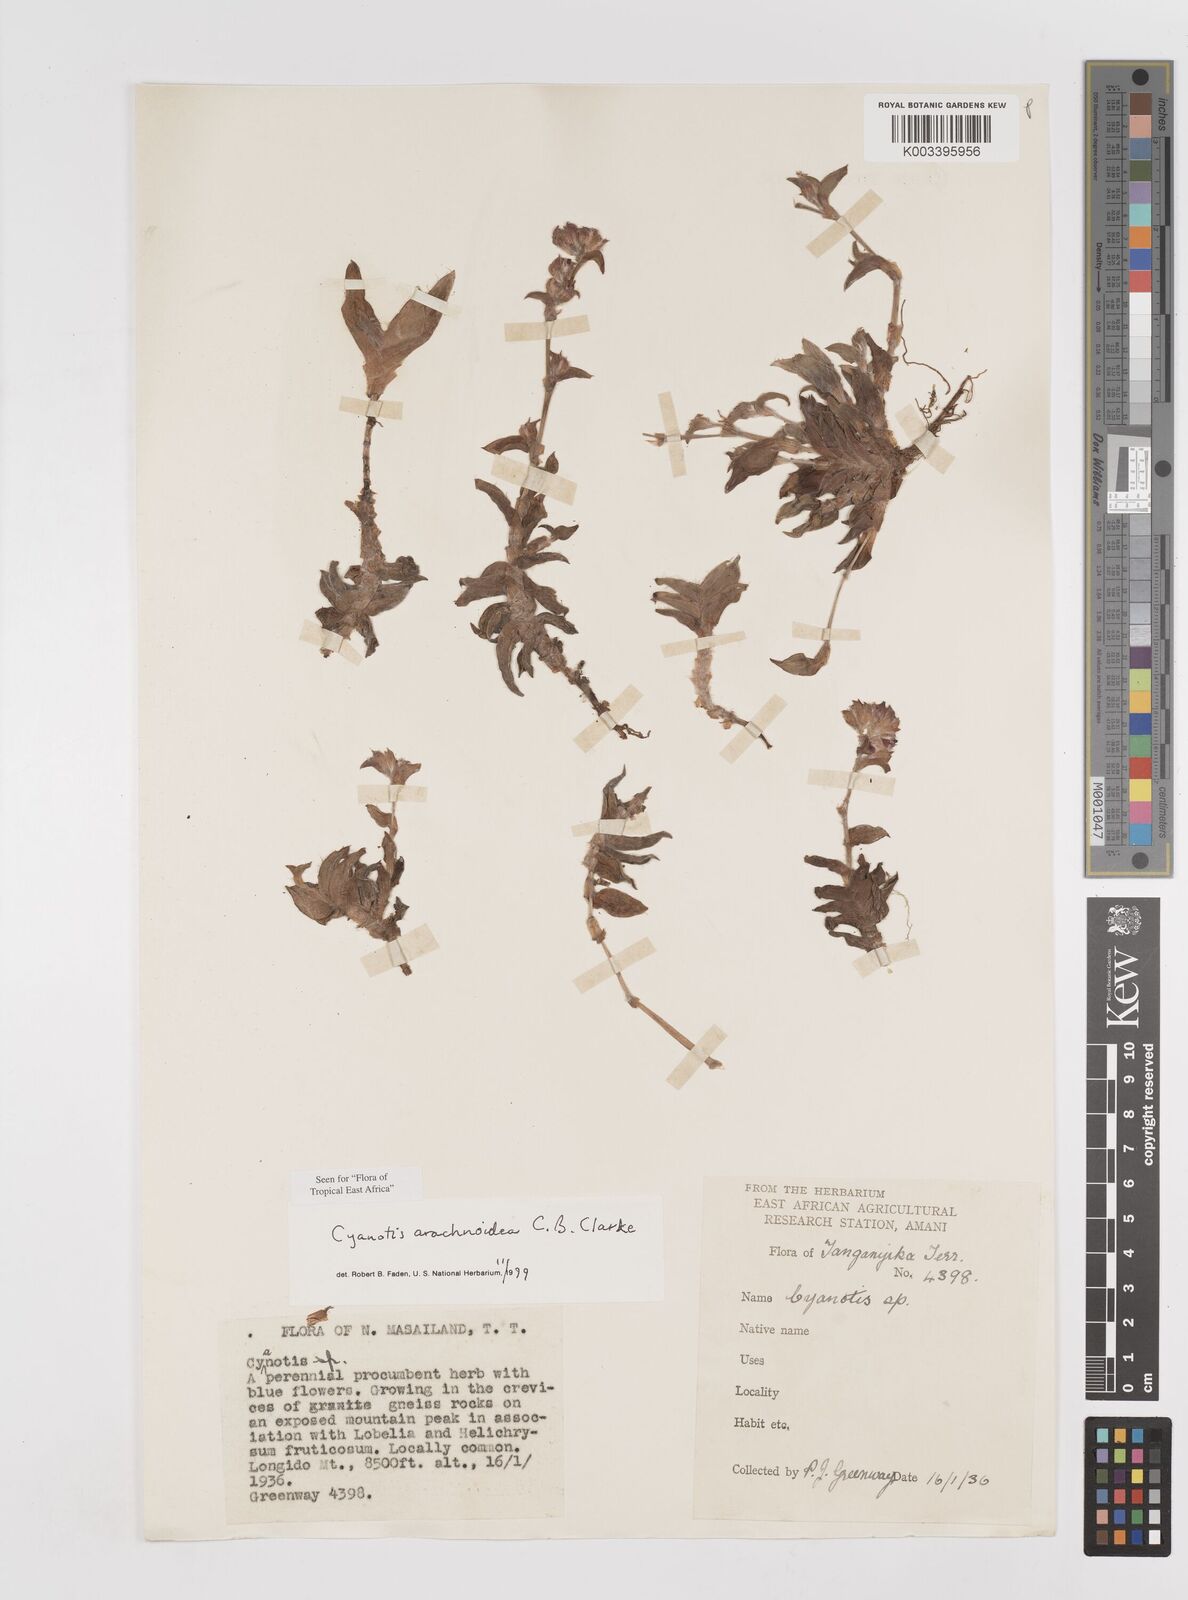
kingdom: Plantae
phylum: Tracheophyta
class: Liliopsida
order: Commelinales
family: Commelinaceae
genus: Cyanotis
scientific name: Cyanotis arachnoidea
